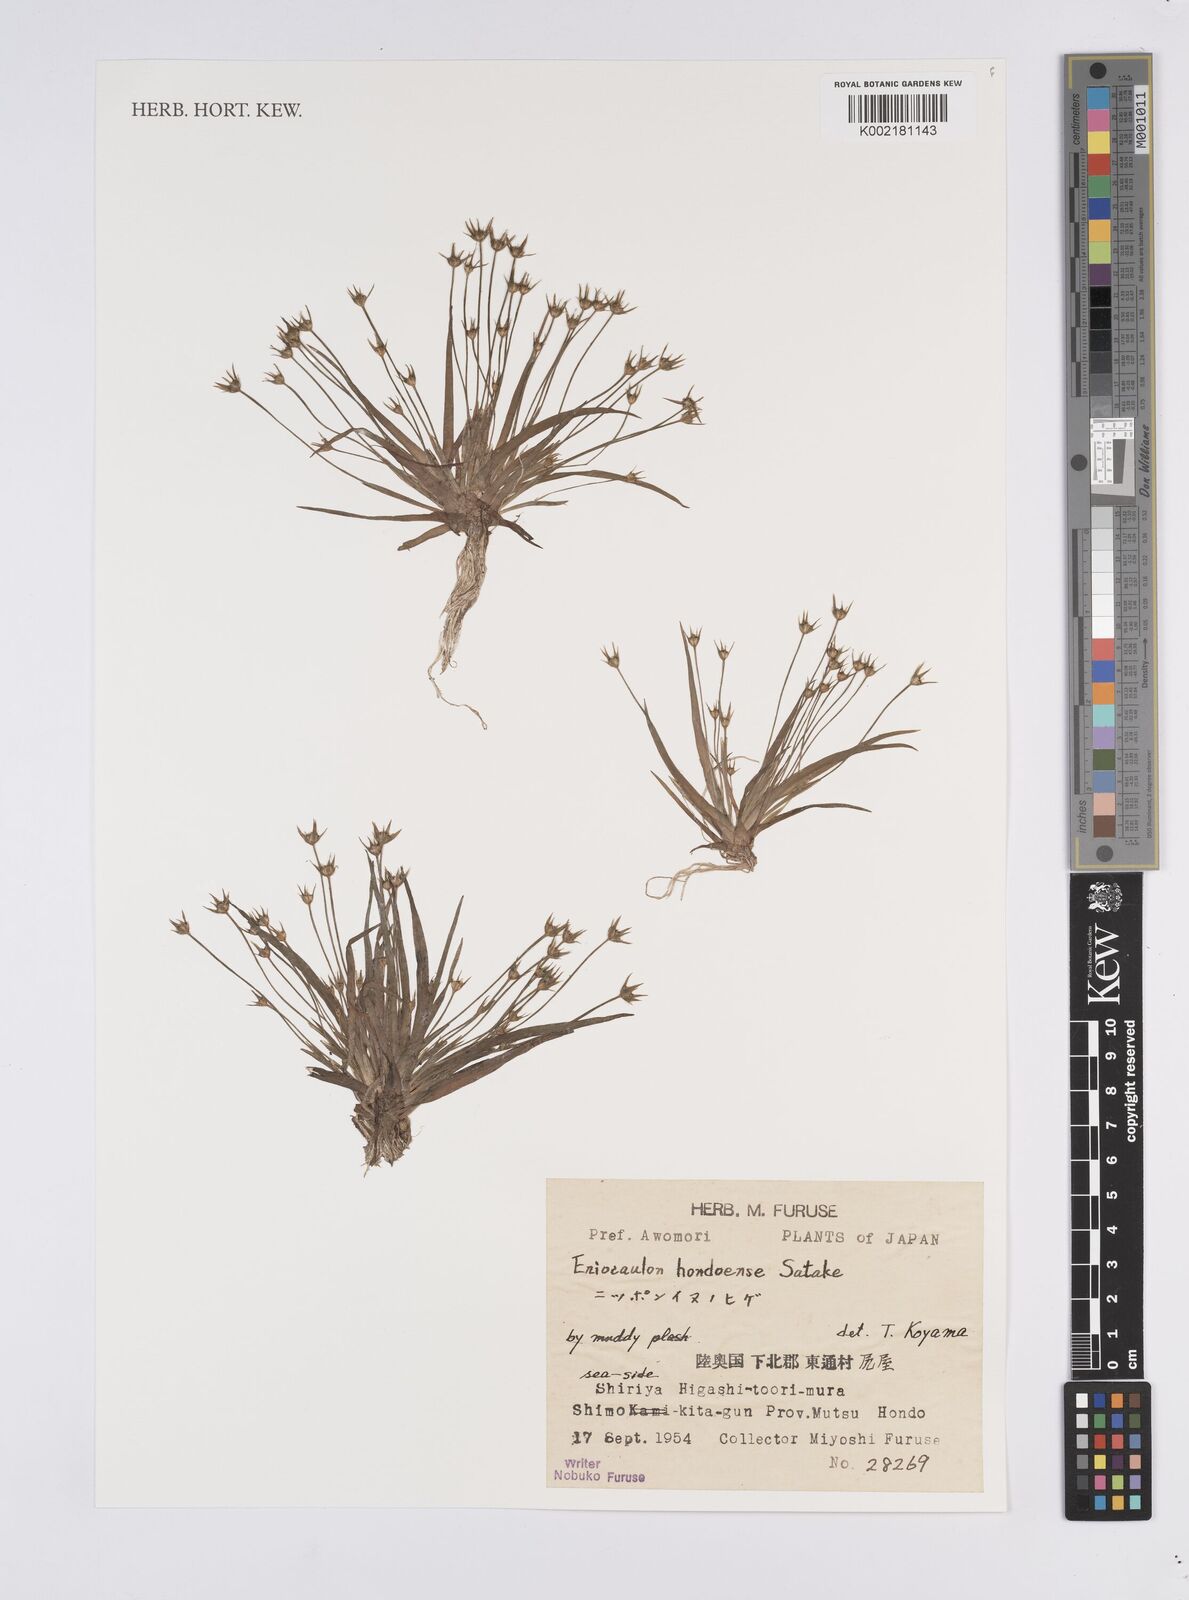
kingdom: Plantae
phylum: Tracheophyta
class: Liliopsida
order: Poales
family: Eriocaulaceae
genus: Eriocaulon
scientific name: Eriocaulon taquetii
